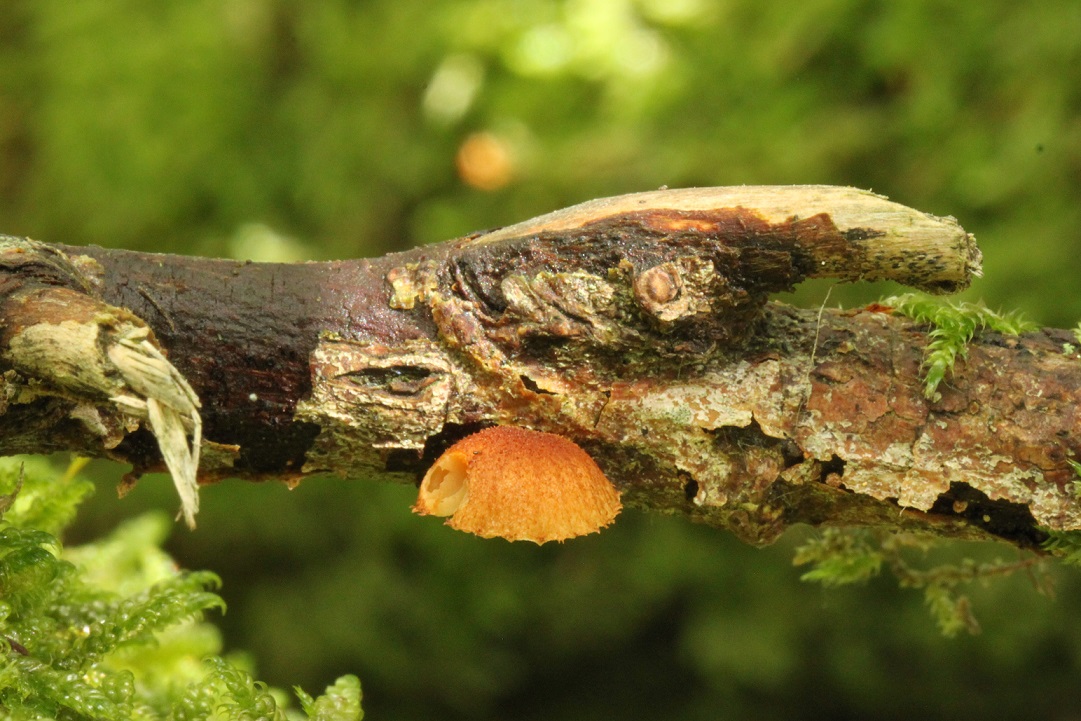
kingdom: Fungi
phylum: Basidiomycota
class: Agaricomycetes
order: Agaricales
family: Tubariaceae
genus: Phaeomarasmius
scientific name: Phaeomarasmius erinaceus
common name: spidsskælhat
